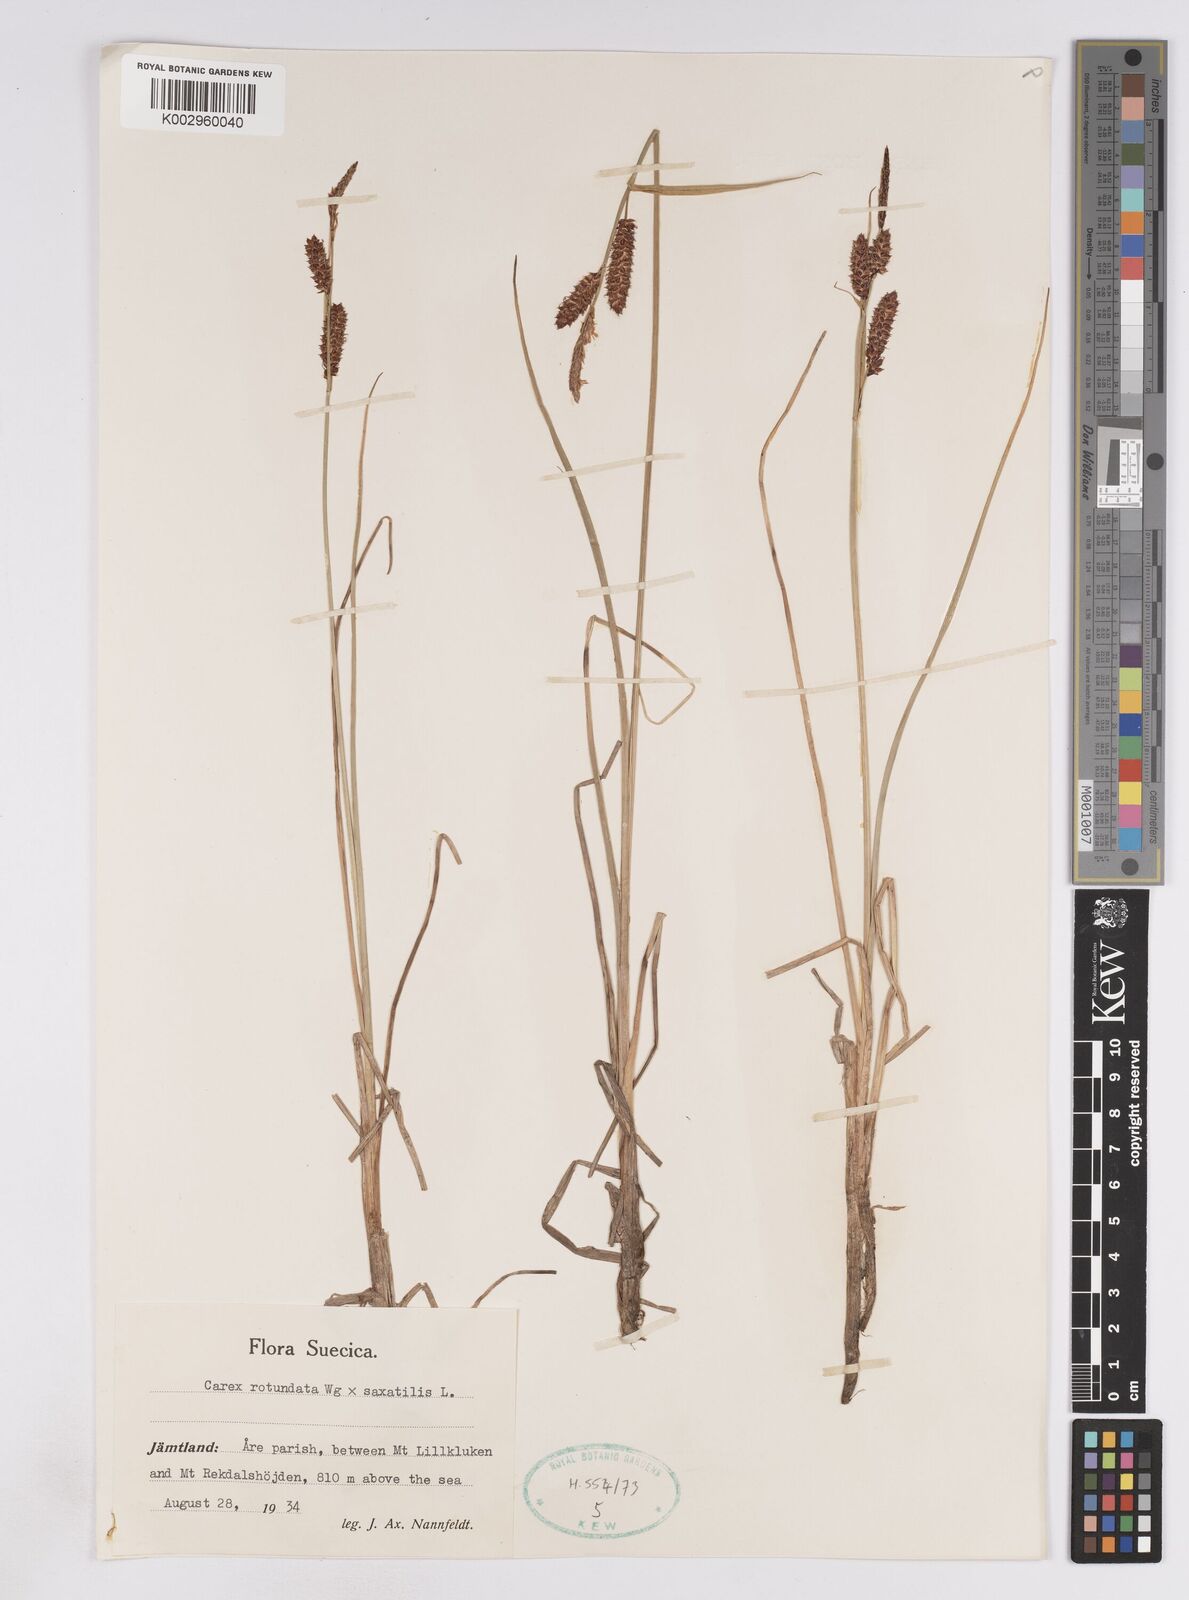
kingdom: Plantae
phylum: Tracheophyta
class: Liliopsida
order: Poales
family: Cyperaceae
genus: Carex
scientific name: Carex
